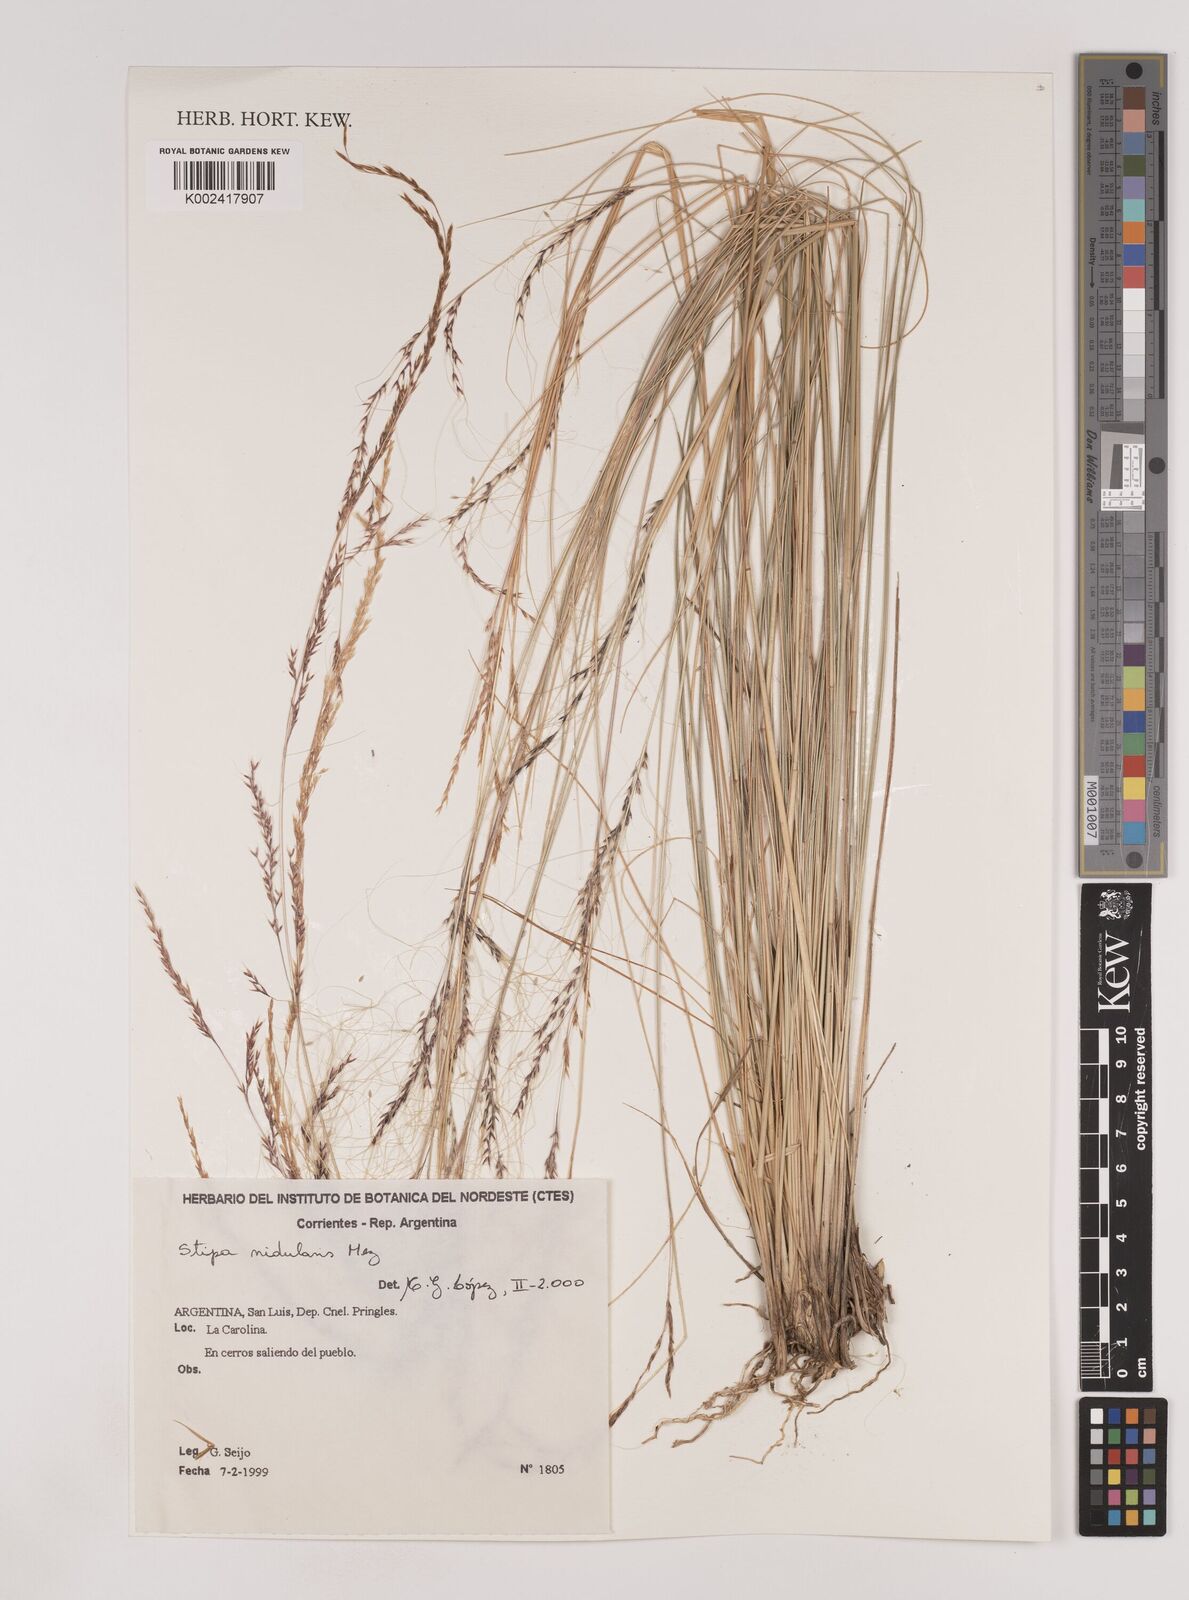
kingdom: Plantae
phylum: Tracheophyta
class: Liliopsida
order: Poales
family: Poaceae
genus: Nassella
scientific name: Nassella nidulans
